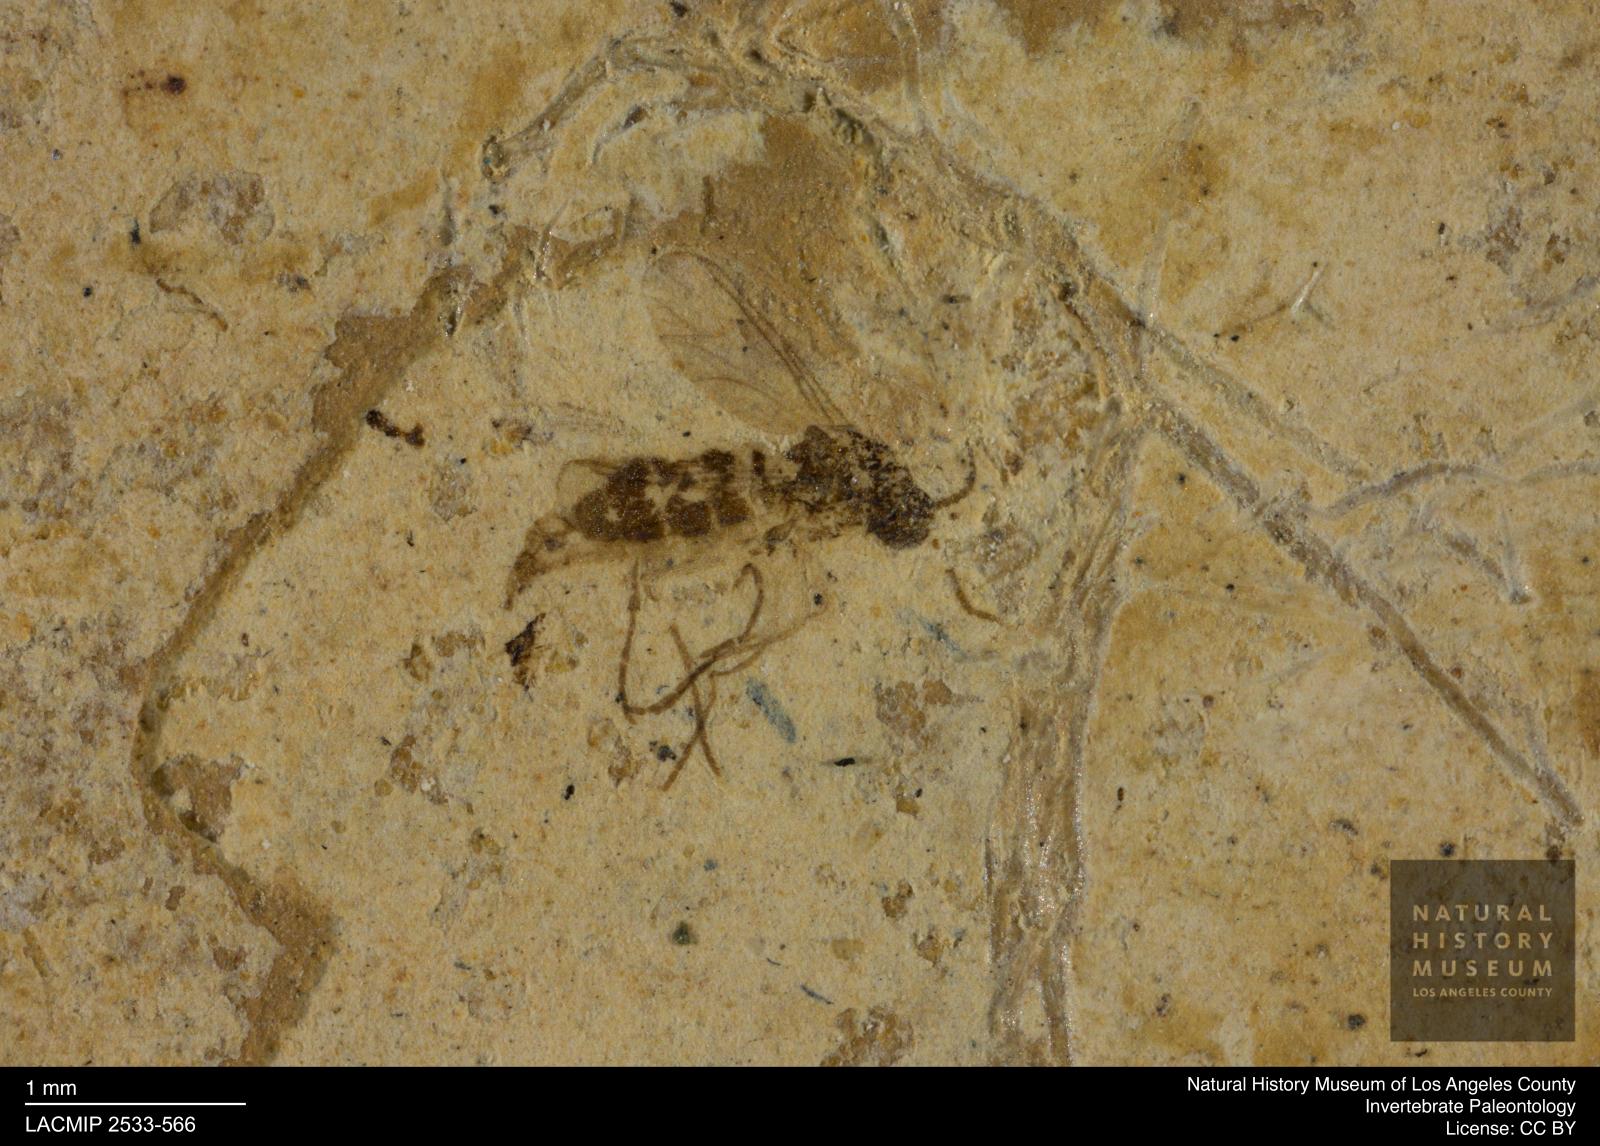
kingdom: Animalia
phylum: Arthropoda
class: Insecta
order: Diptera
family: Sciaridae
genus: Corynoptera
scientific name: Corynoptera klebsii
